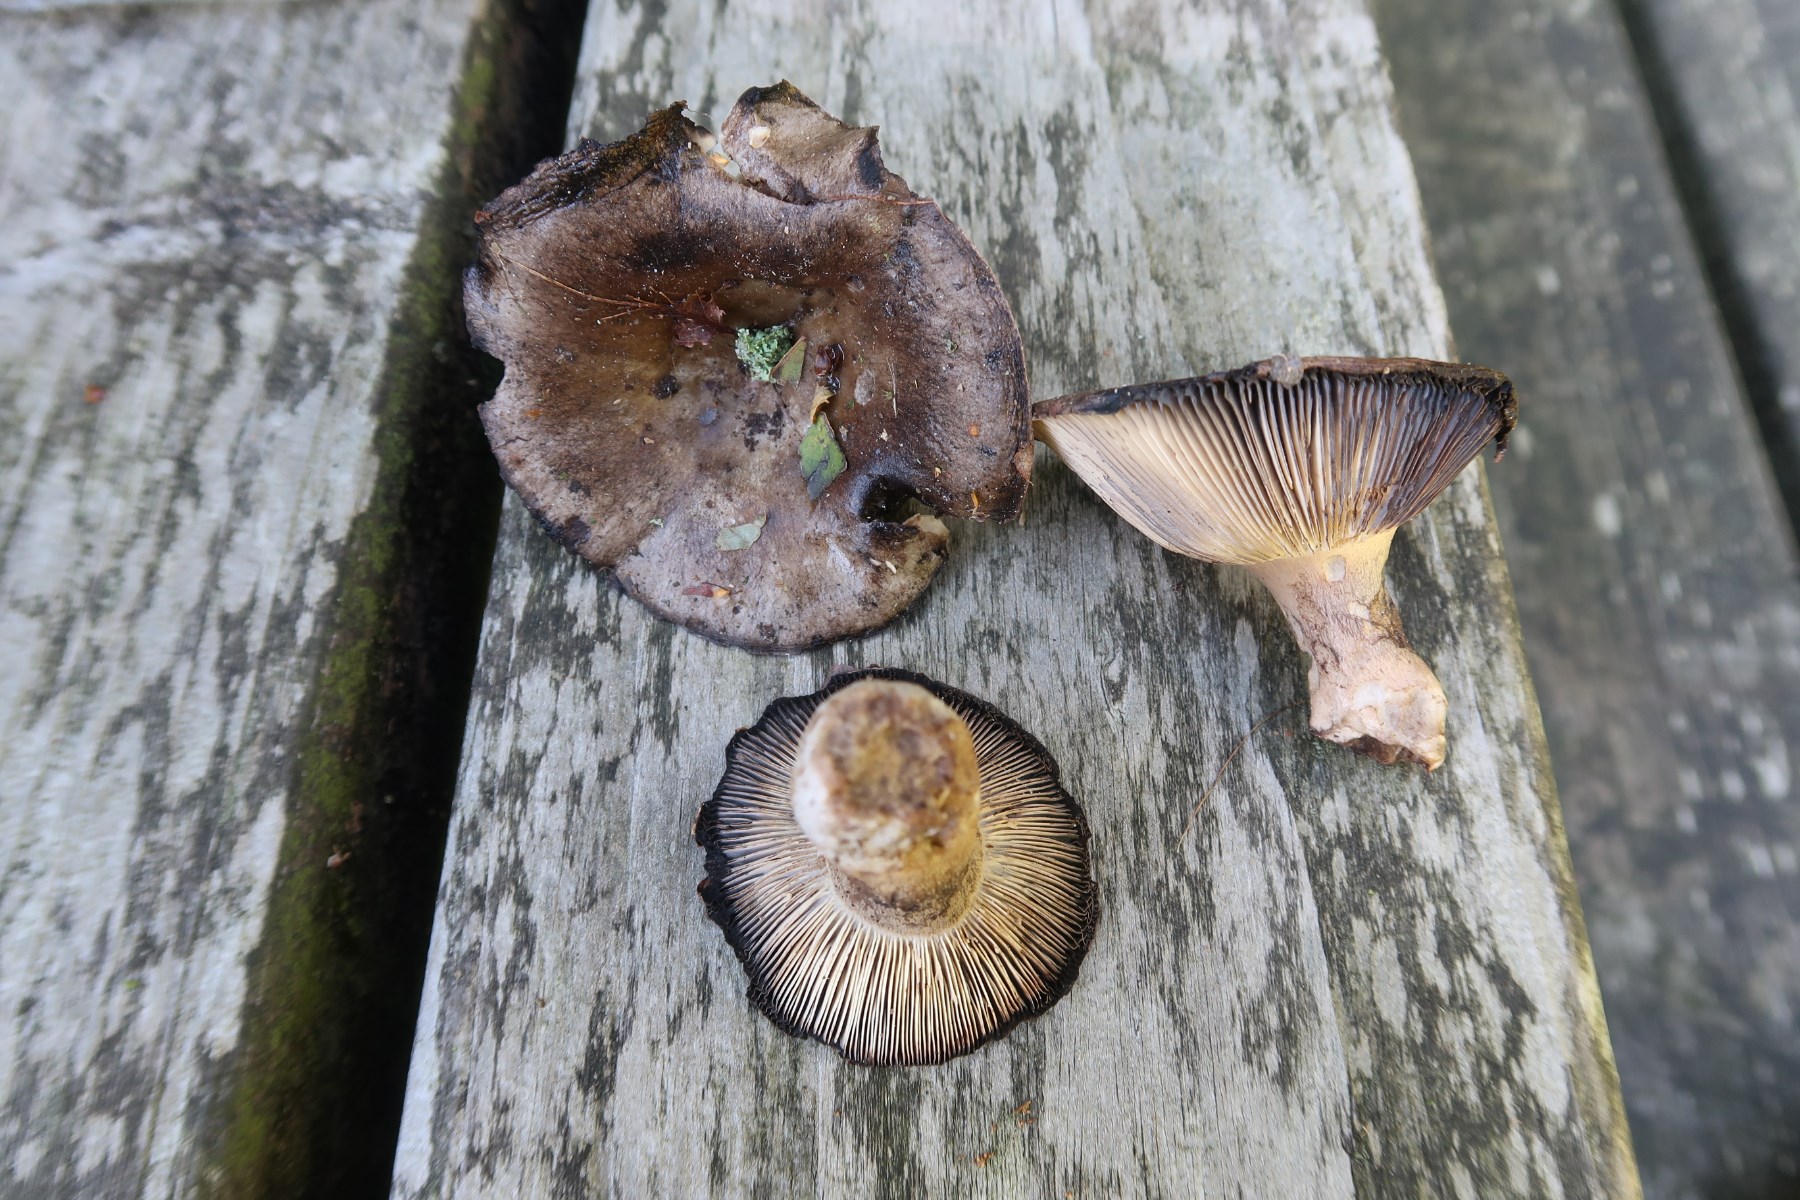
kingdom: Fungi
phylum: Basidiomycota
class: Agaricomycetes
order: Russulales
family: Russulaceae
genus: Russula
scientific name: Russula densifolia
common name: tætbladet skørhat
